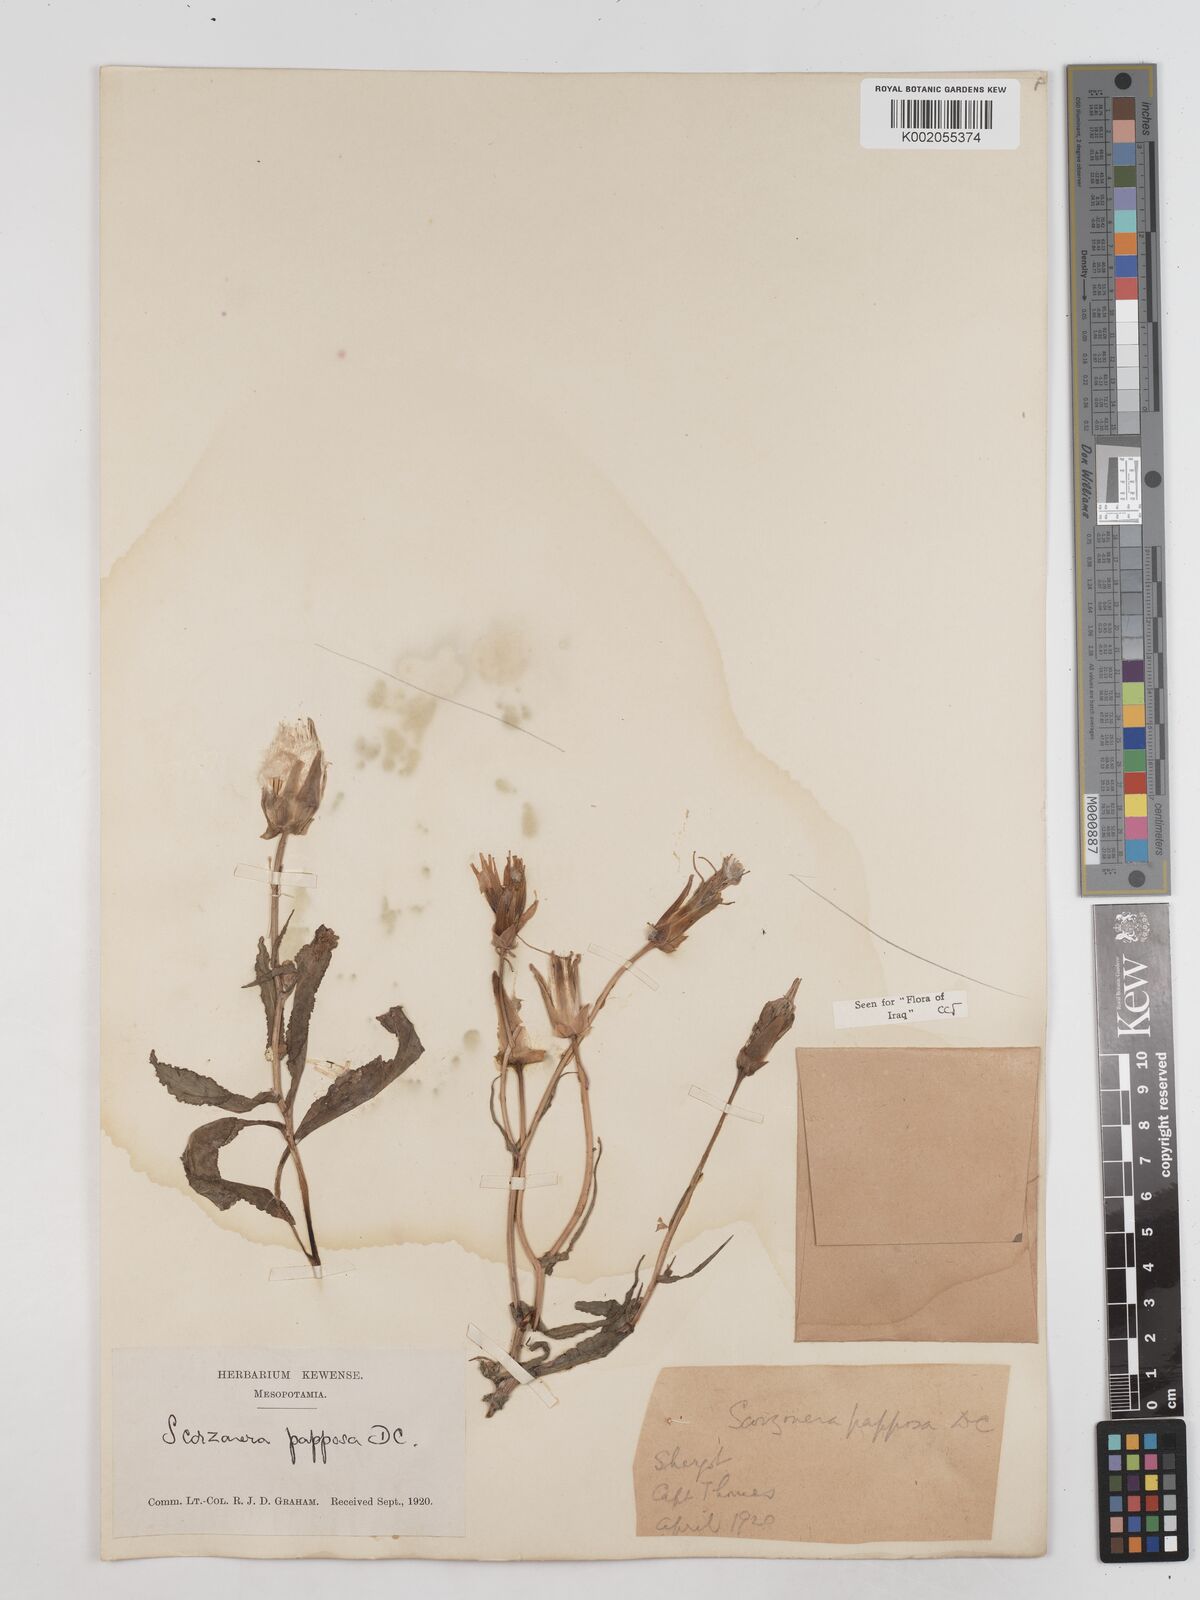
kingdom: Plantae
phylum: Tracheophyta
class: Magnoliopsida
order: Asterales
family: Asteraceae
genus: Pseudopodospermum
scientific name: Pseudopodospermum papposum
